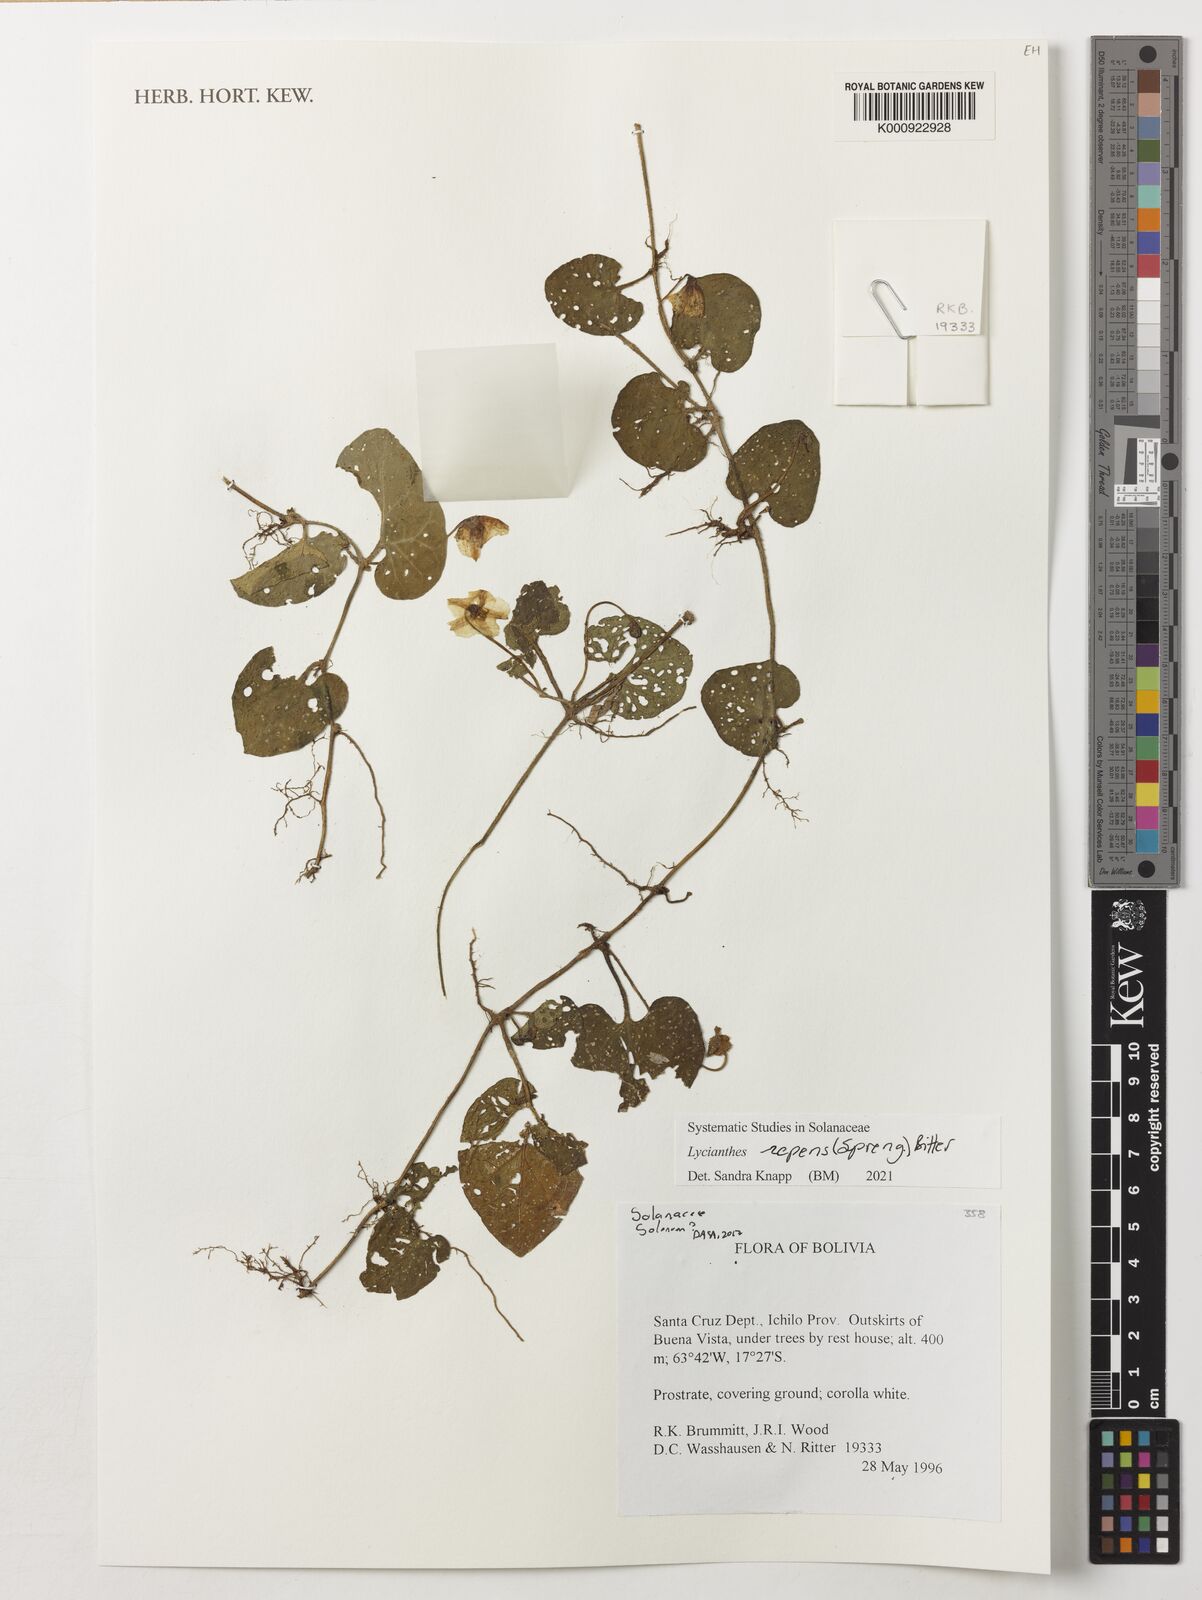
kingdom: Plantae
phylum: Tracheophyta
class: Magnoliopsida
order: Solanales
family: Solanaceae
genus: Lycianthes
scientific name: Lycianthes repens
